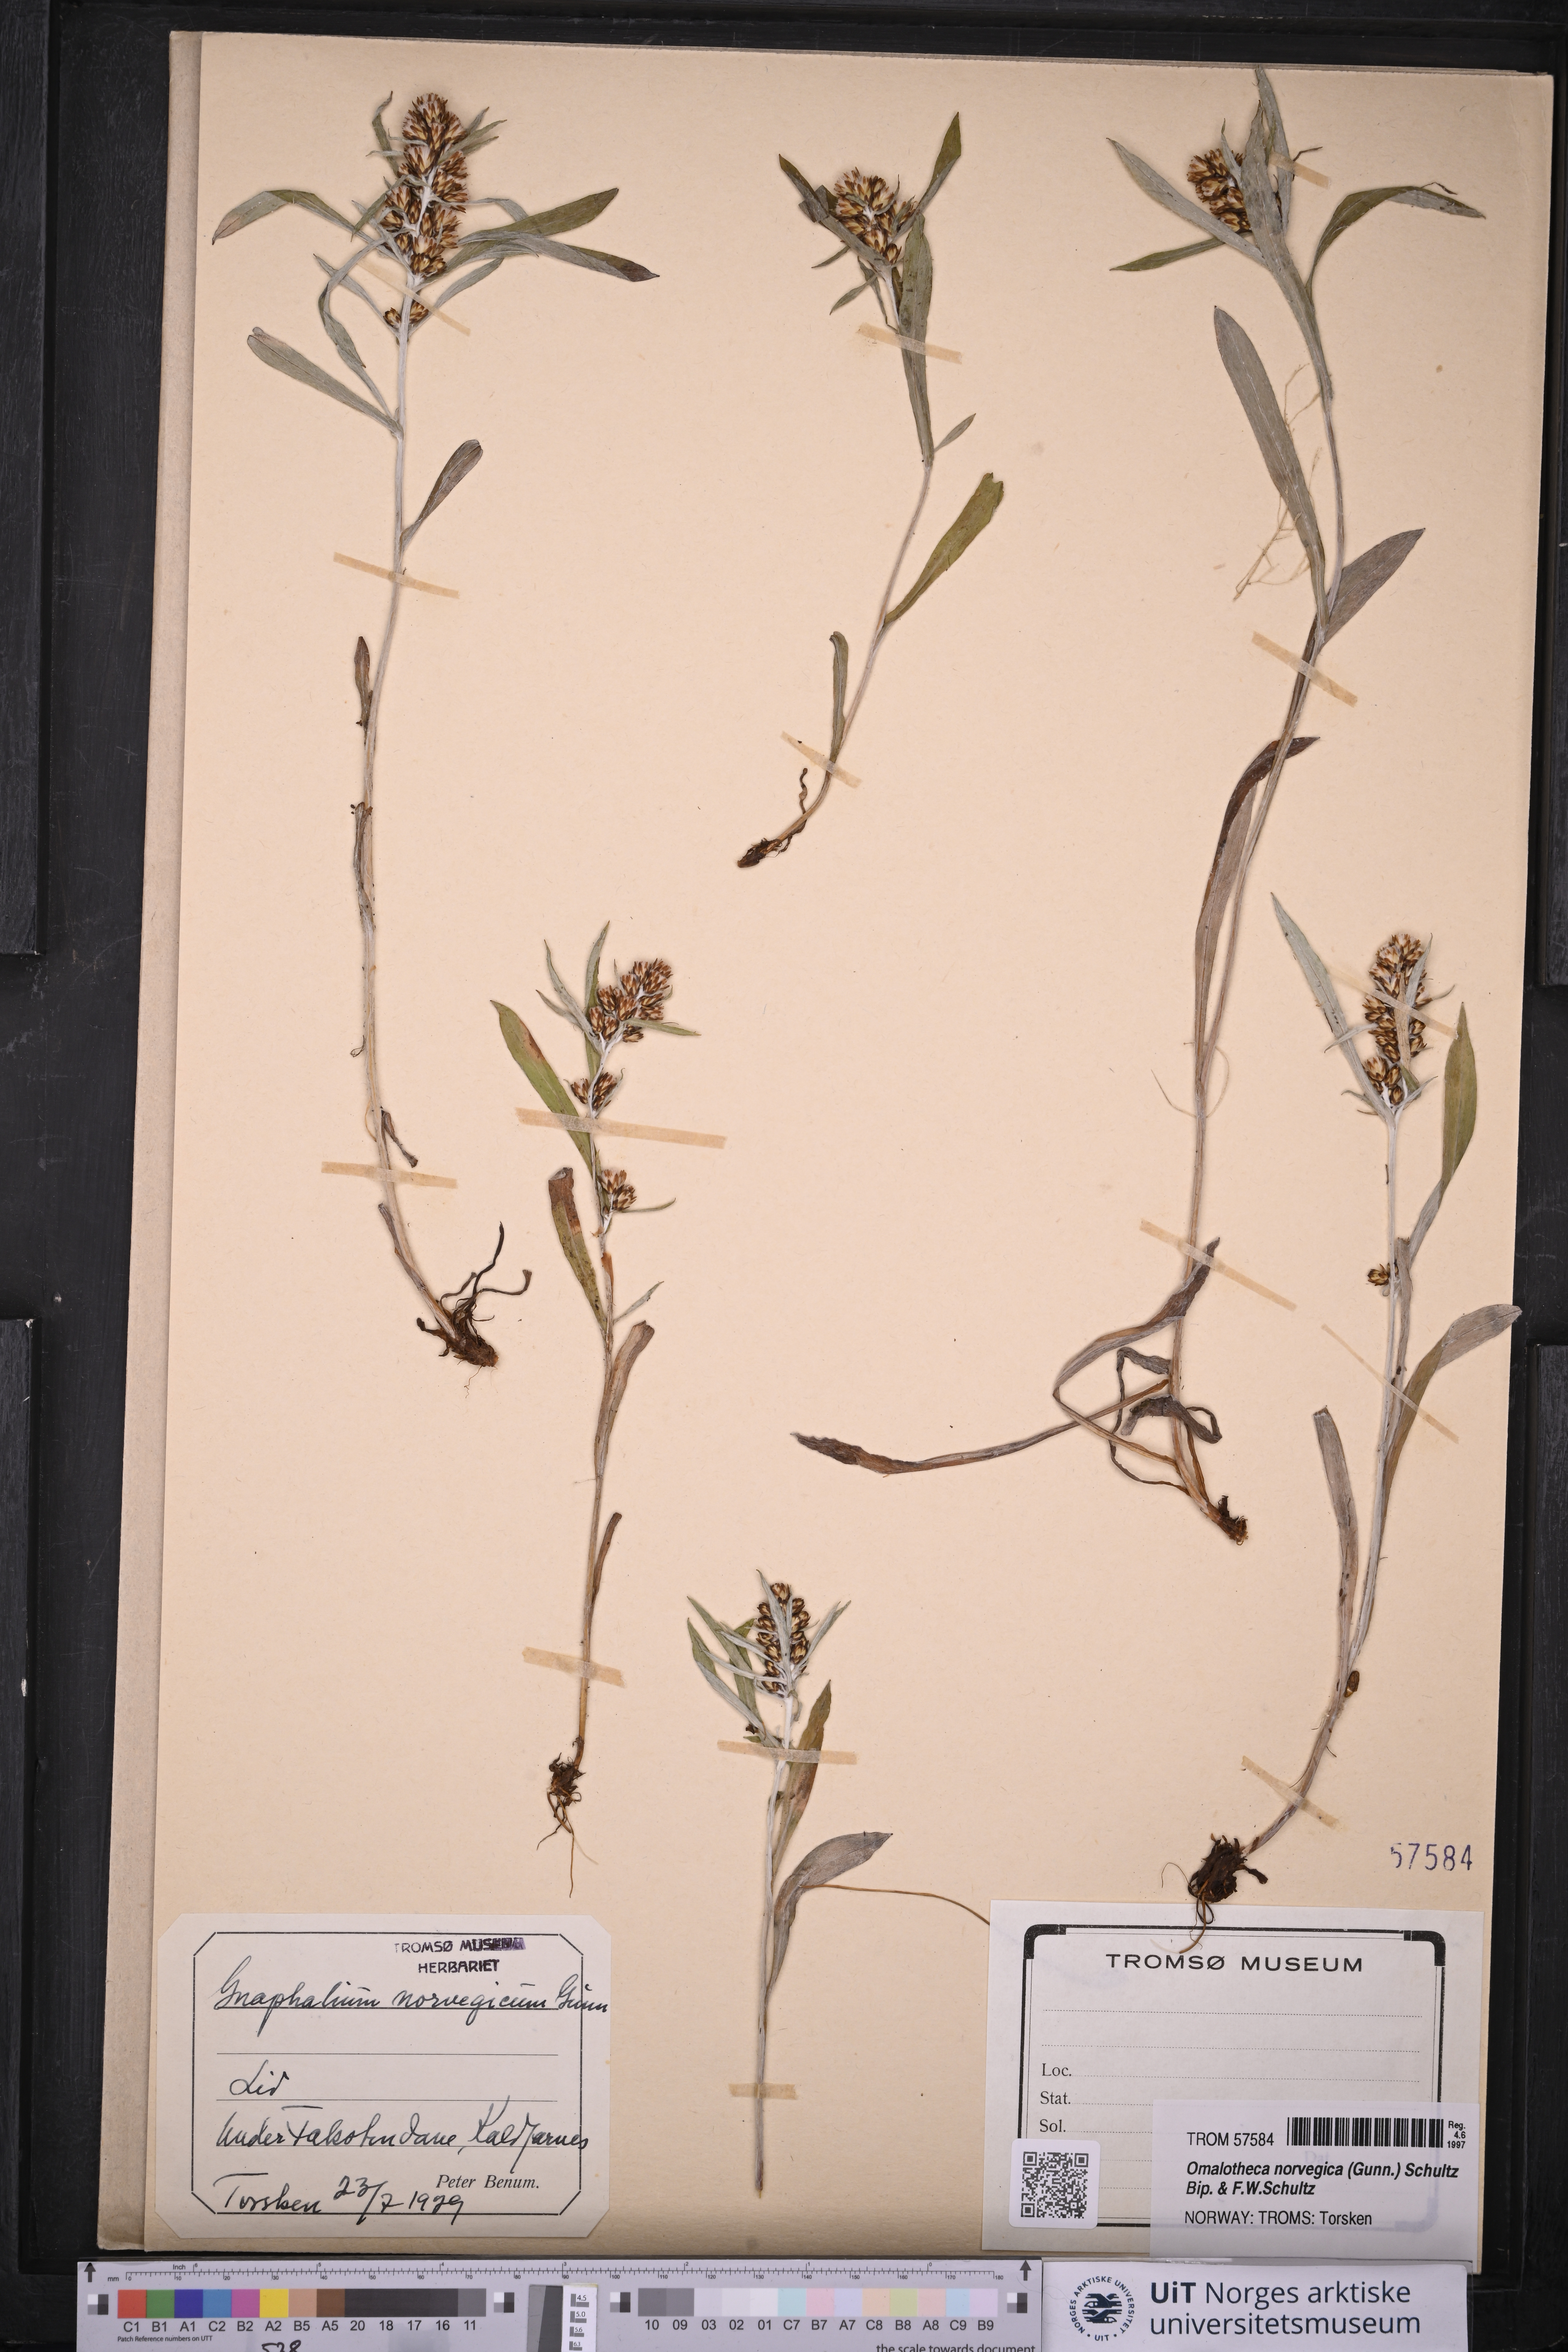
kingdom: Plantae
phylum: Tracheophyta
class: Magnoliopsida
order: Asterales
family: Asteraceae
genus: Omalotheca
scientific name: Omalotheca norvegica
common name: Norwegian arctic-cudweed
